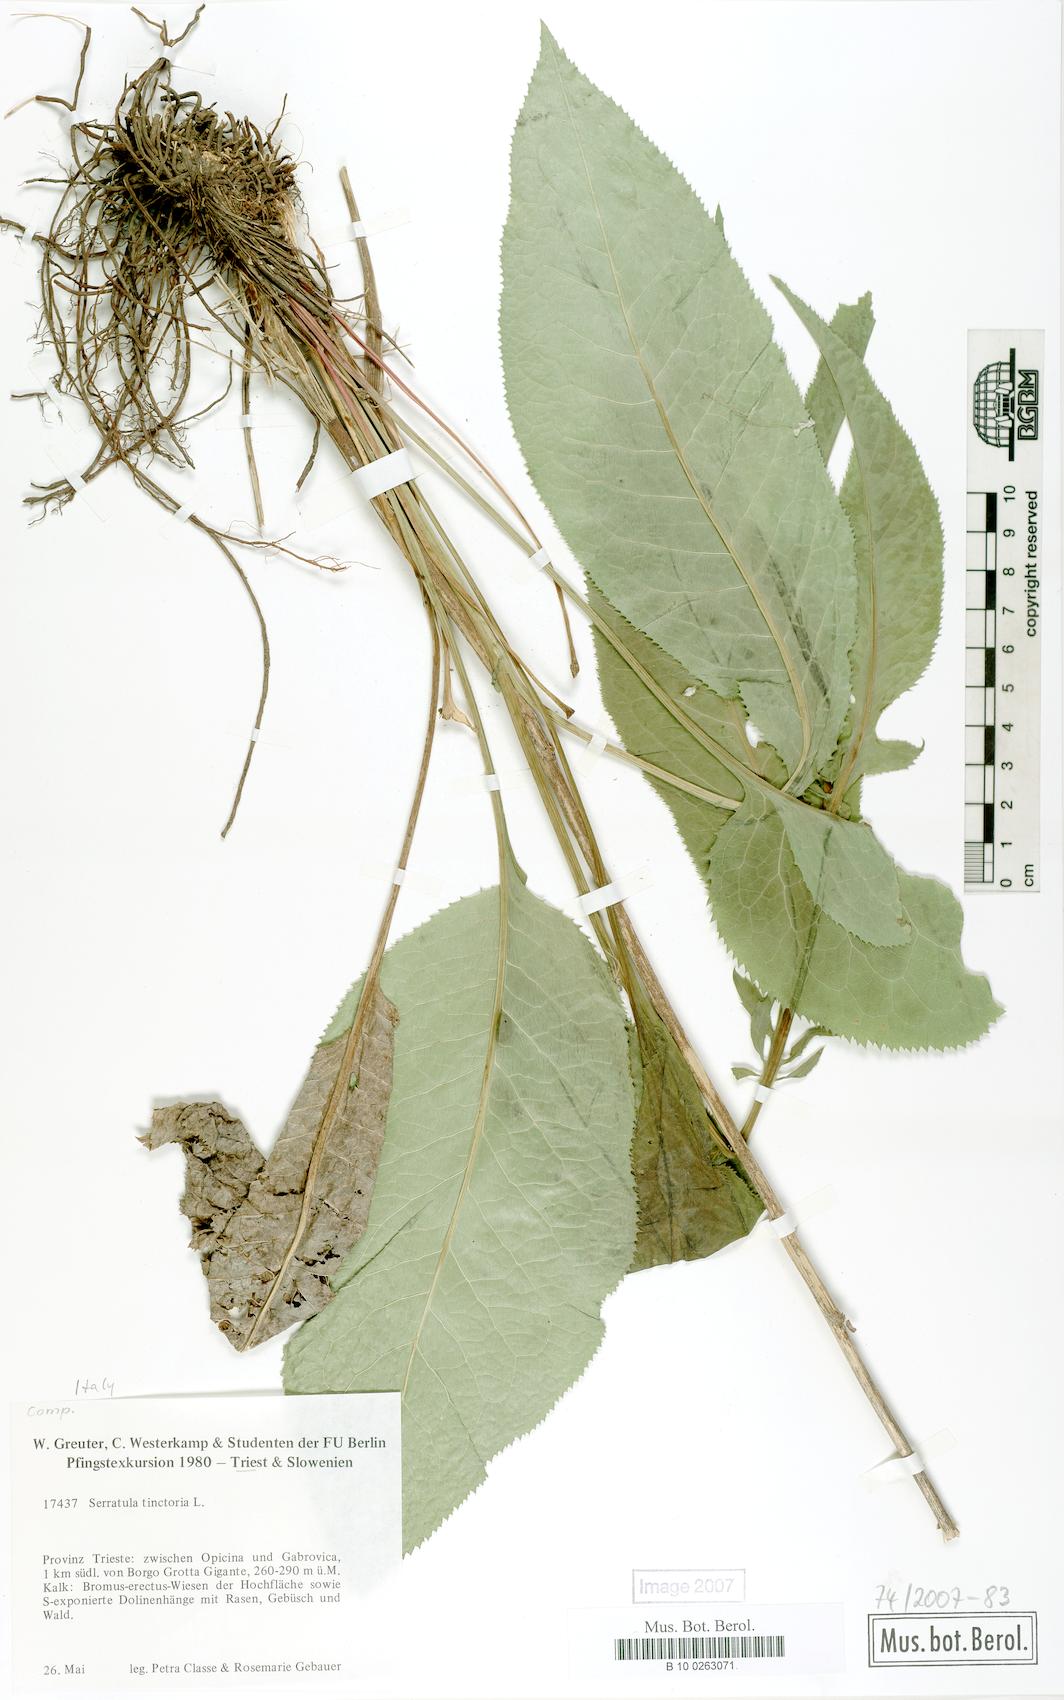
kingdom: Plantae
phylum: Tracheophyta
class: Magnoliopsida
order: Asterales
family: Asteraceae
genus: Serratula
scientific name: Serratula tinctoria
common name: Saw-wort
